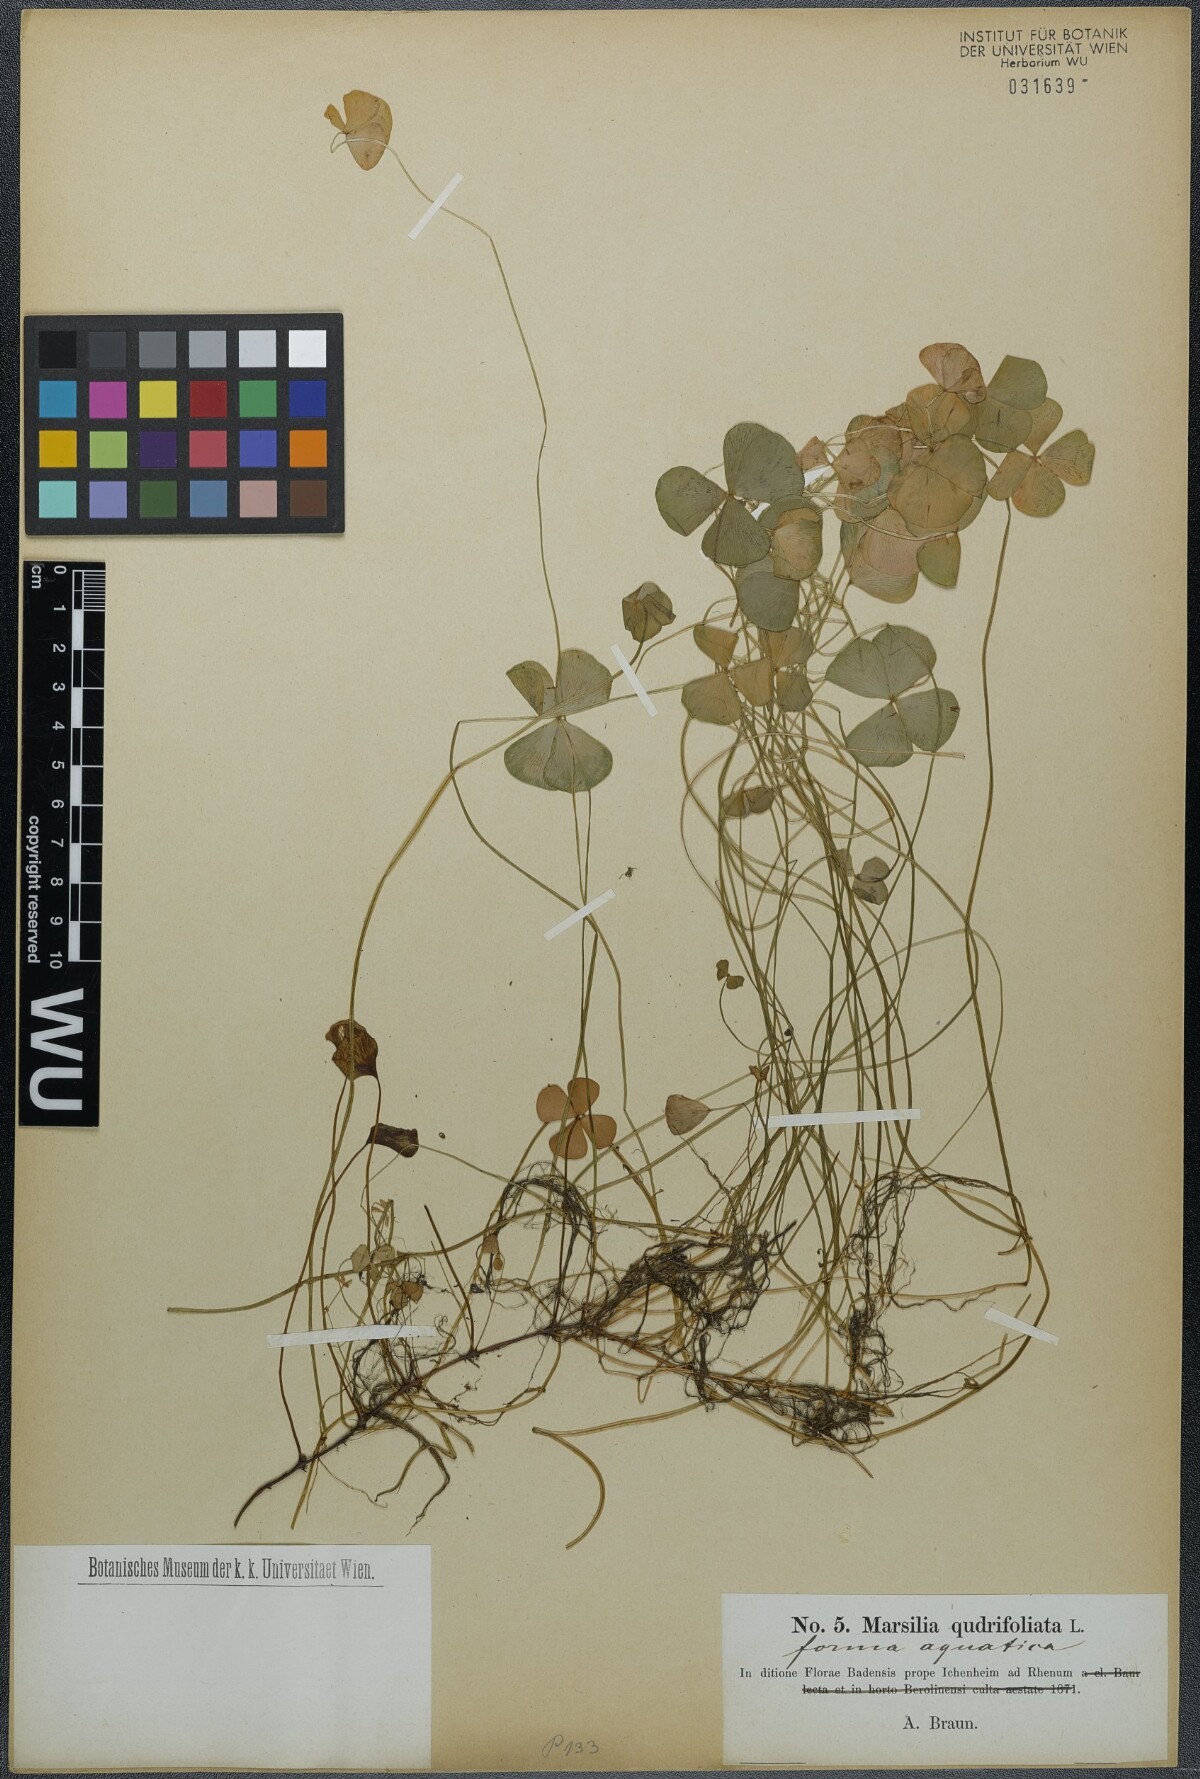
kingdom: Plantae
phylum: Tracheophyta
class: Polypodiopsida
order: Salviniales
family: Marsileaceae
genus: Marsilea
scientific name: Marsilea quadrifolia
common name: Water shamrock
